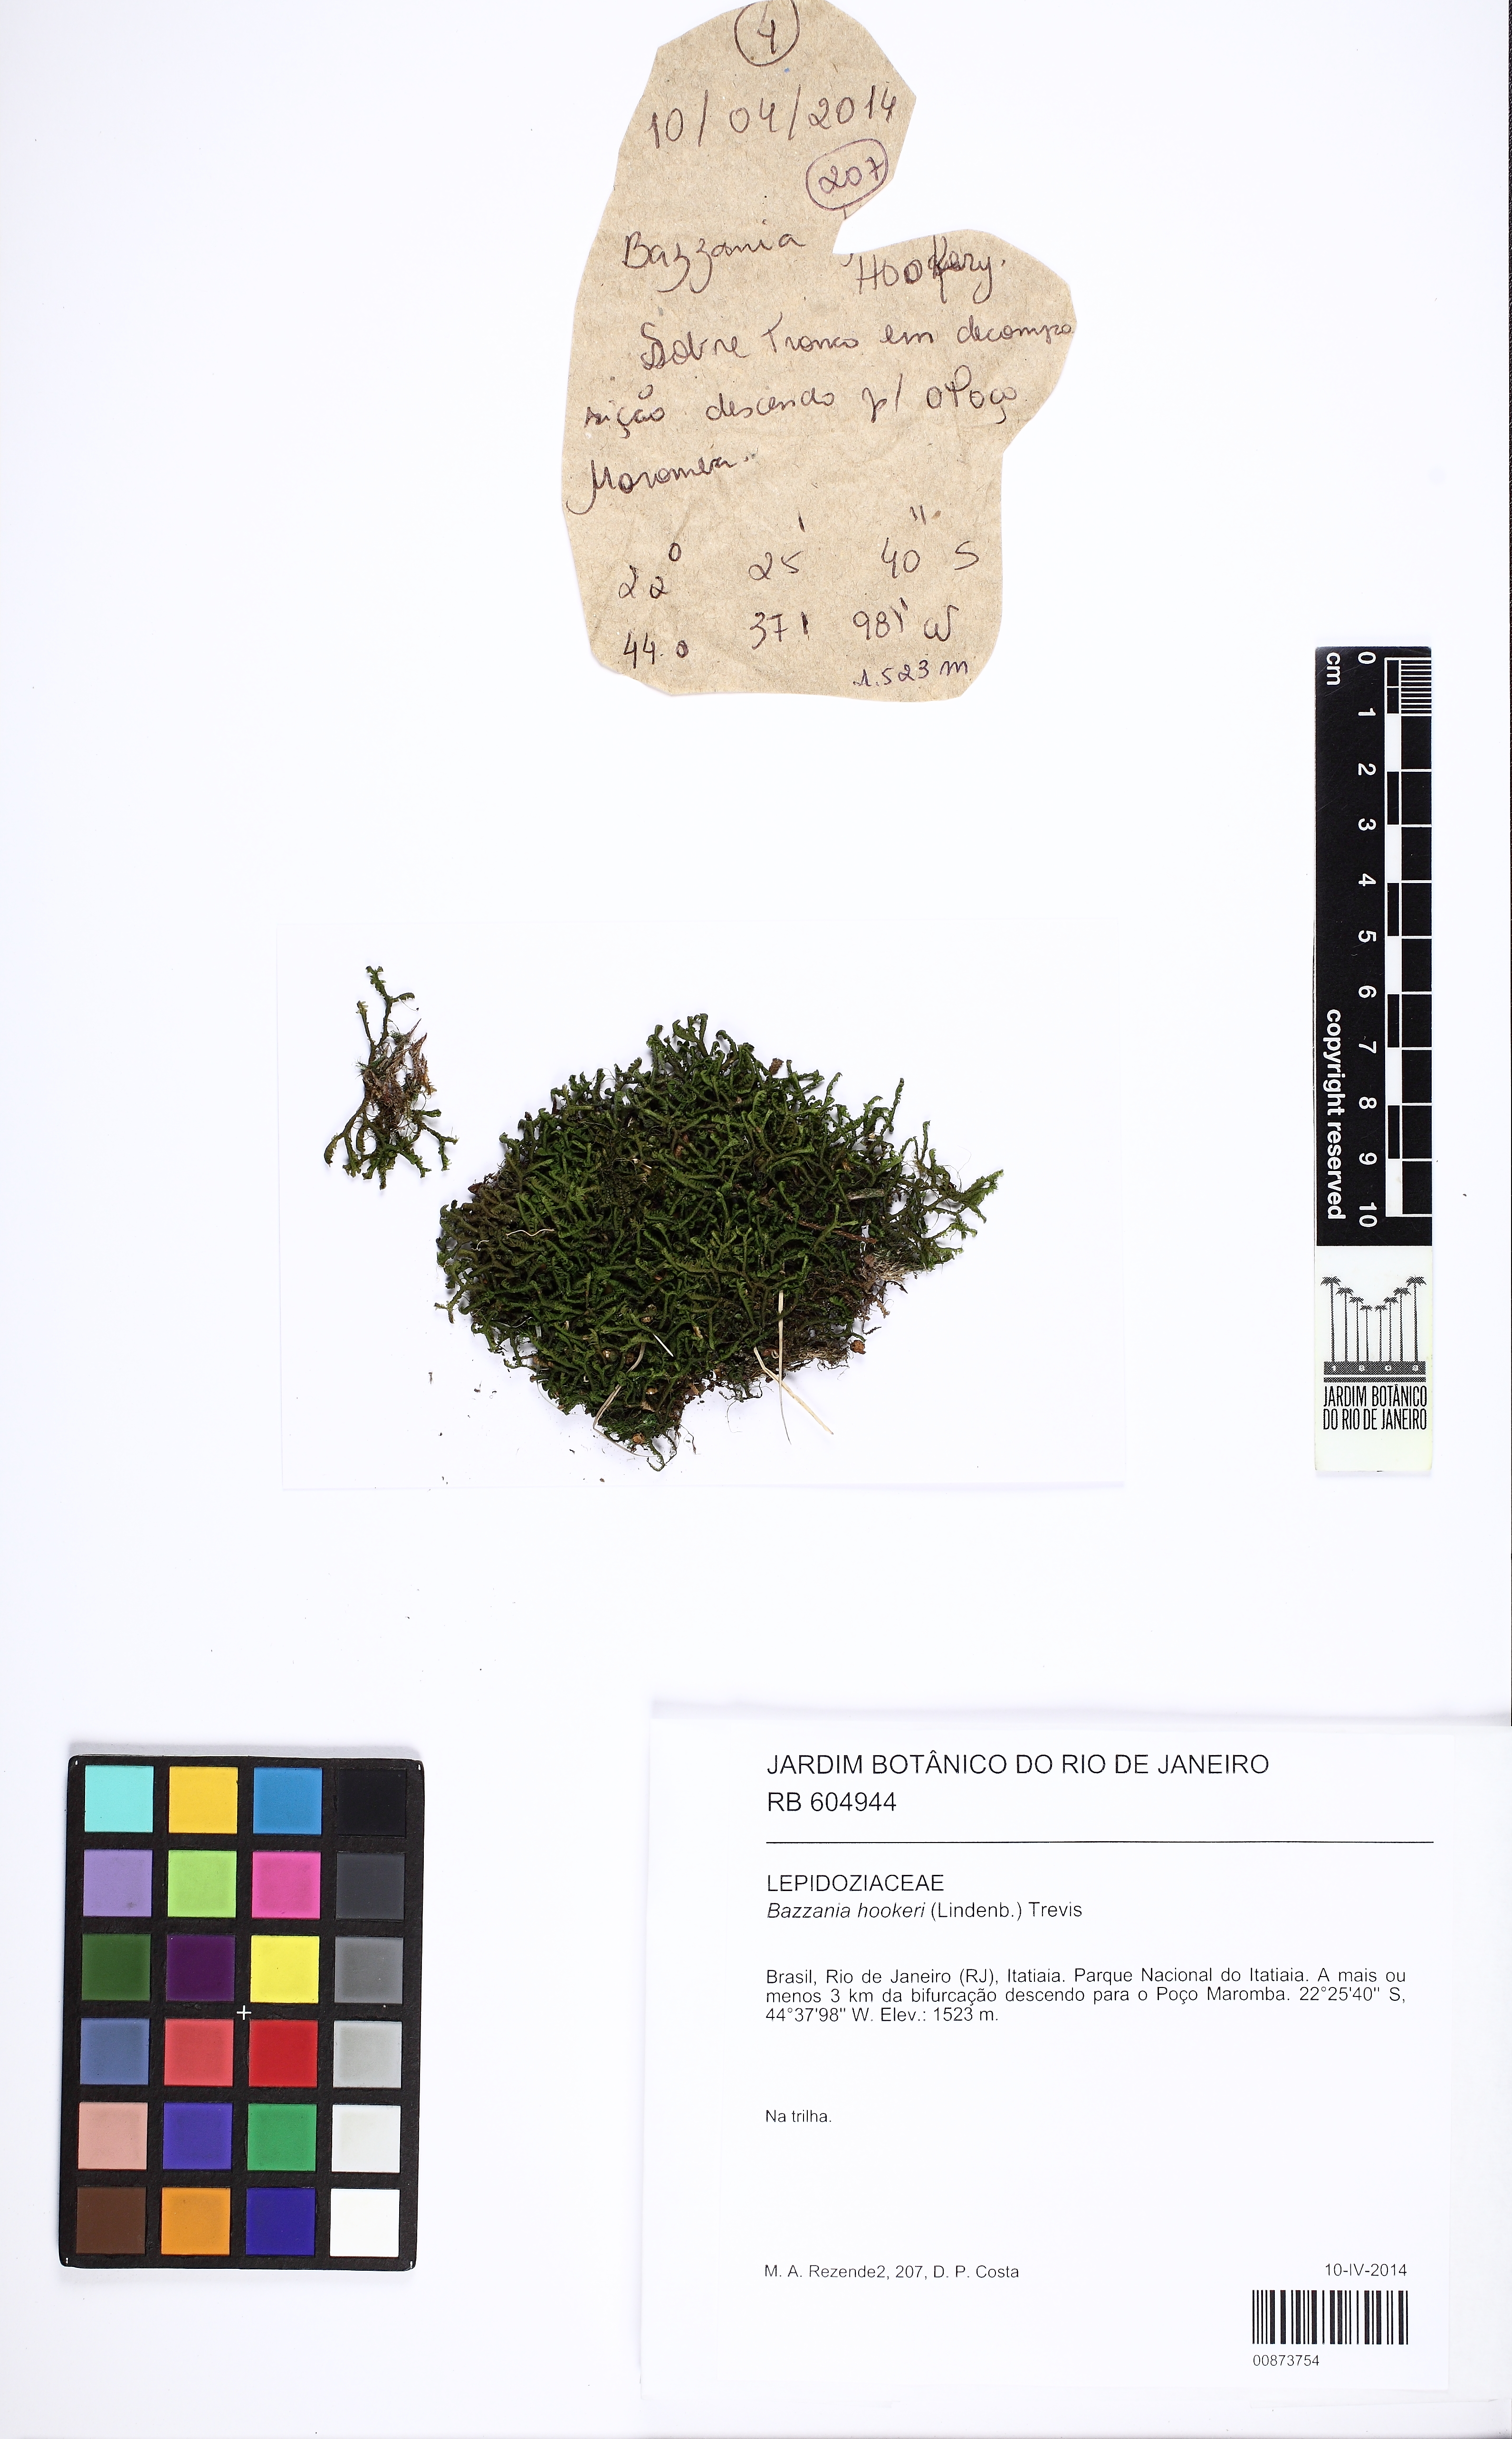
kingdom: Plantae
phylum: Marchantiophyta
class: Jungermanniopsida
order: Jungermanniales
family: Lepidoziaceae
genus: Bazzania
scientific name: Bazzania hookeri
